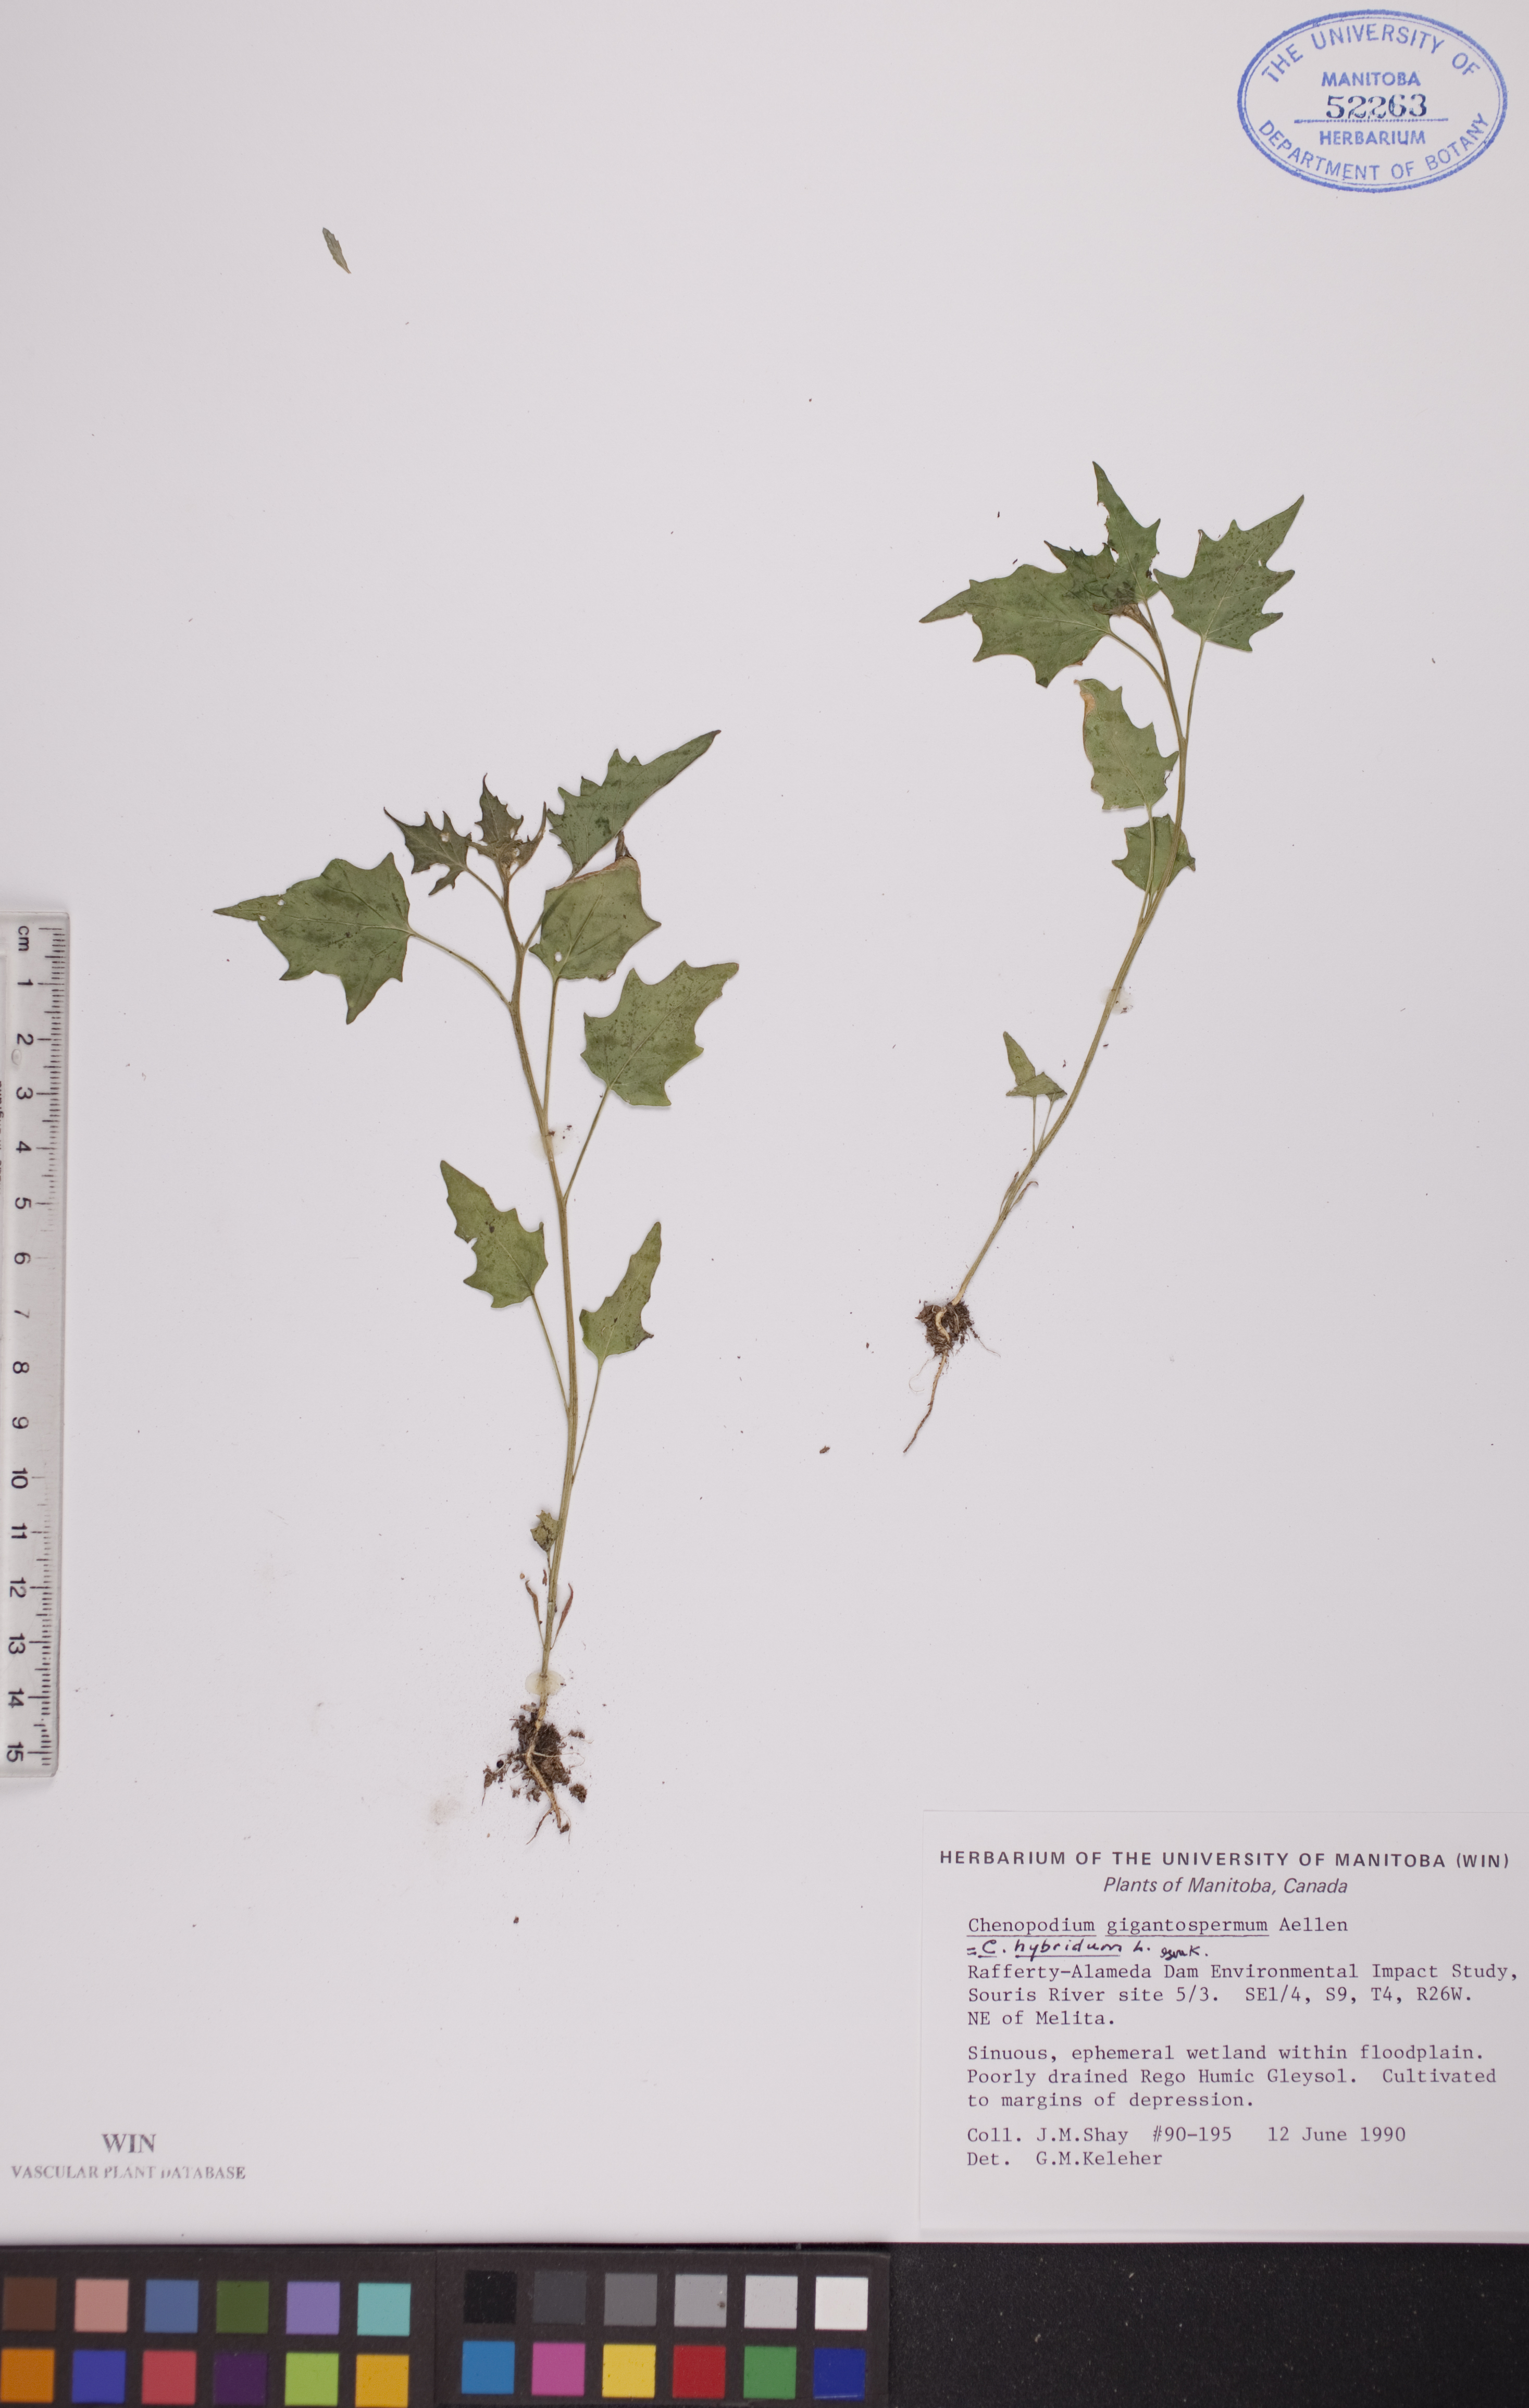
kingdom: Plantae
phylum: Tracheophyta
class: Magnoliopsida
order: Caryophyllales
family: Amaranthaceae
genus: Chenopodiastrum
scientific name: Chenopodiastrum simplex
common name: Large-seed goosefoot
